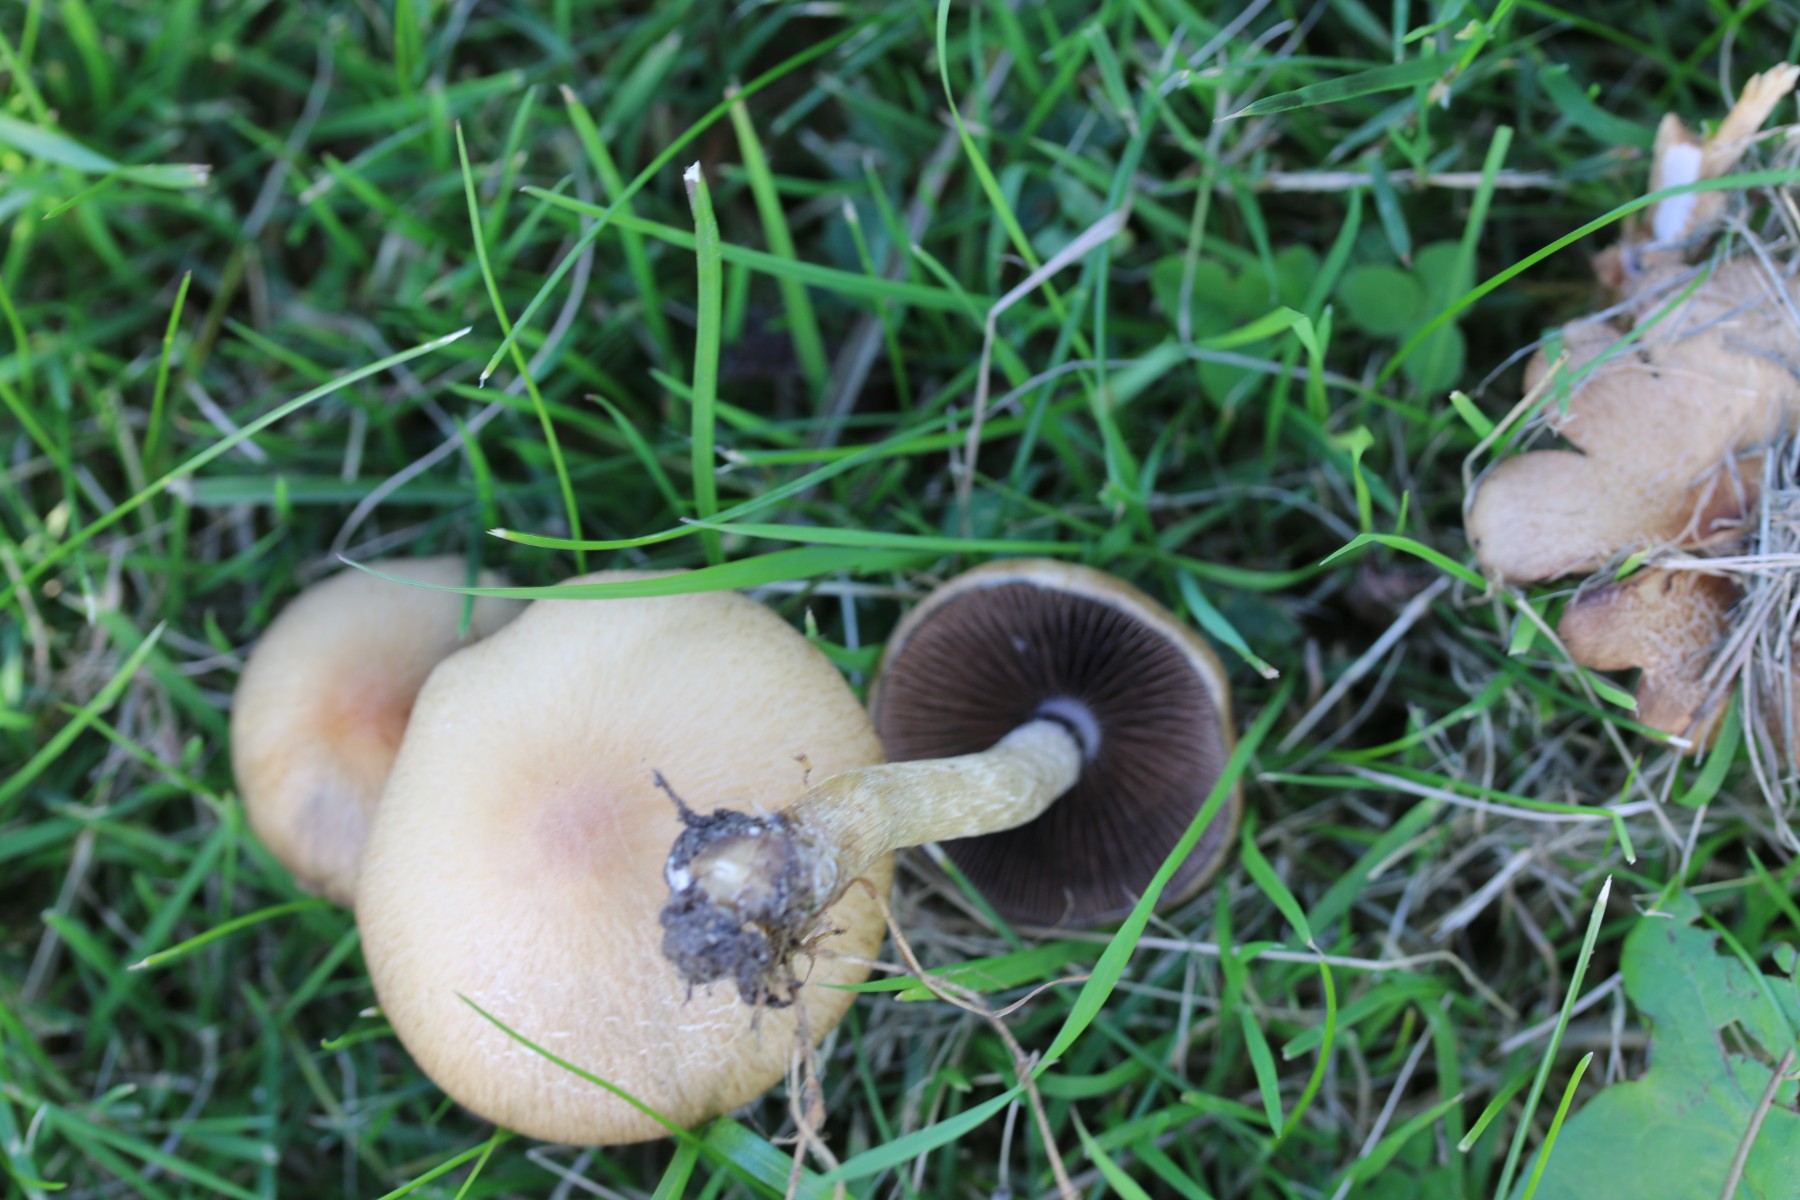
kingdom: Fungi
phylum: Basidiomycota
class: Agaricomycetes
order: Agaricales
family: Psathyrellaceae
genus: Lacrymaria
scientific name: Lacrymaria lacrymabunda
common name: grædende mørkhat
